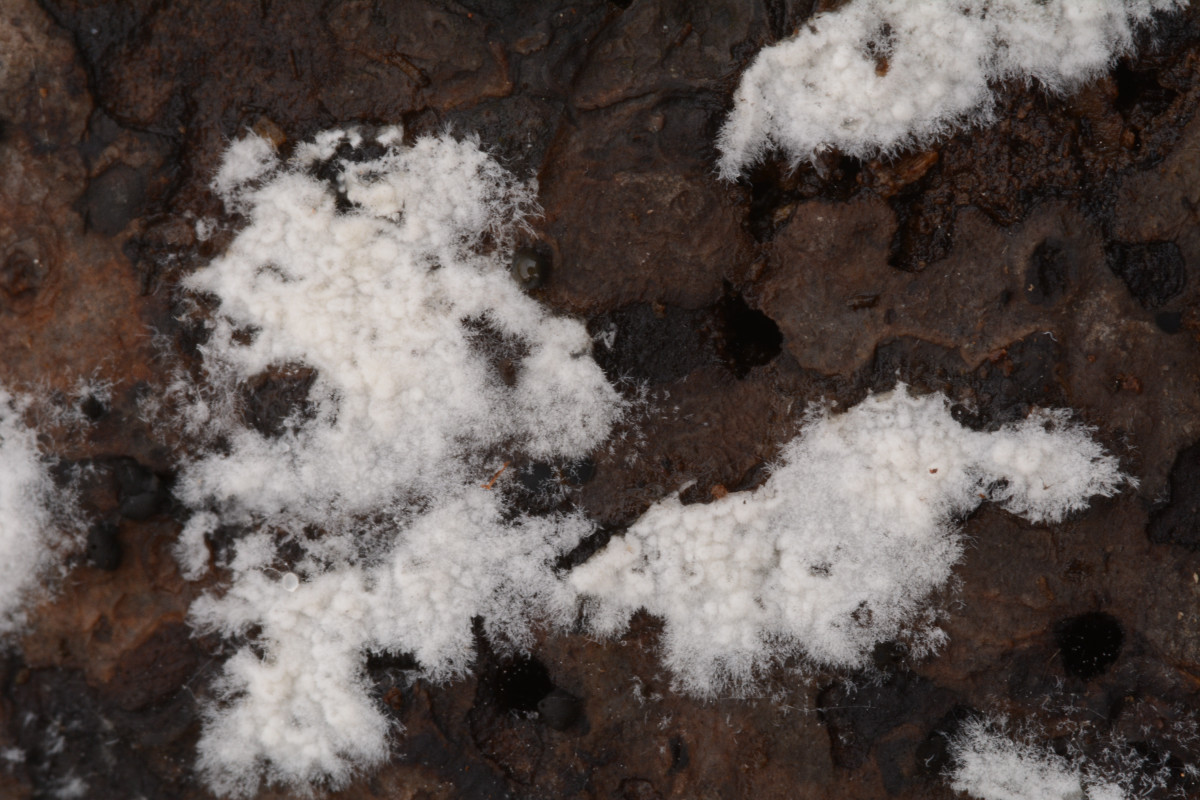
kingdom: Fungi
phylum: Basidiomycota
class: Agaricomycetes
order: Atheliales
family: Atheliaceae
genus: Amphinema
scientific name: Amphinema byssoides
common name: almindelig rodhinde
